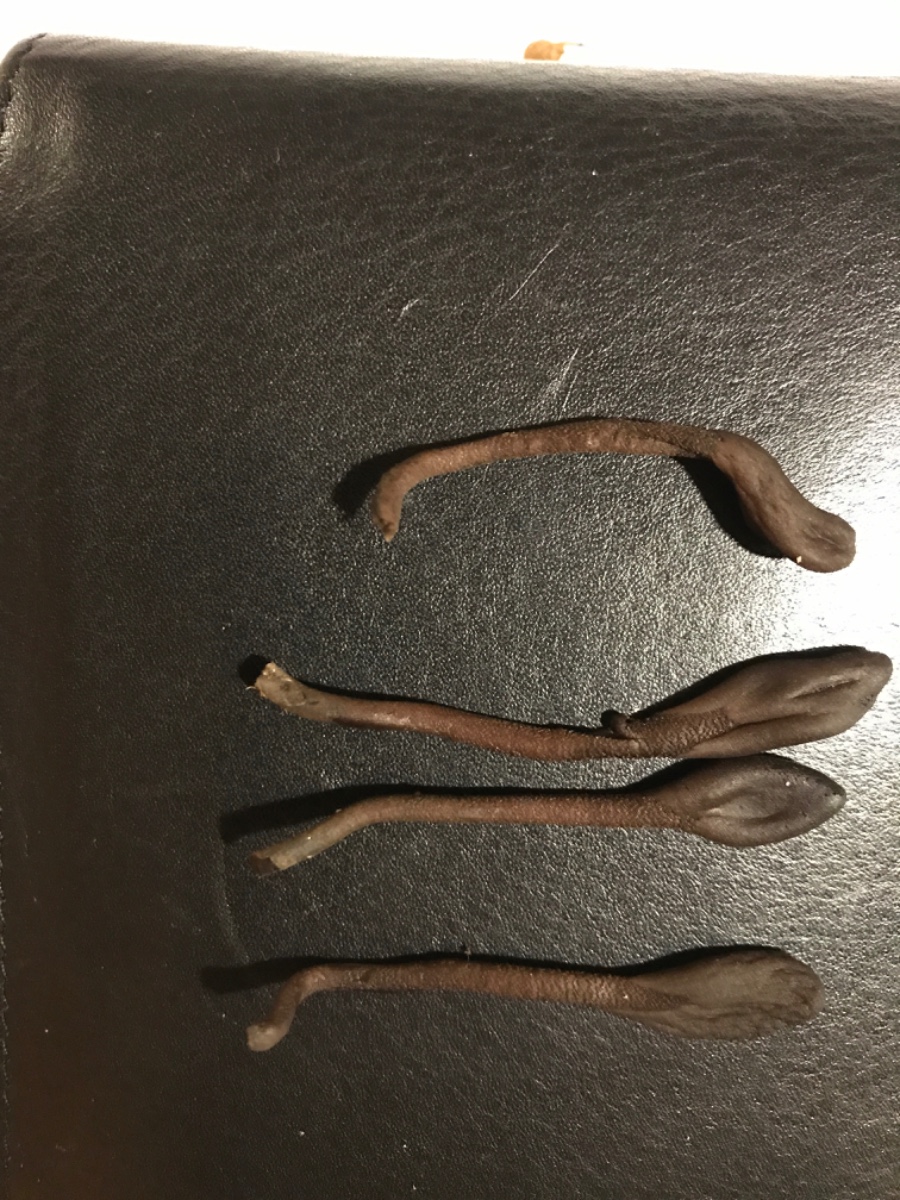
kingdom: Fungi
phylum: Ascomycota
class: Geoglossomycetes
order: Geoglossales
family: Geoglossaceae
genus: Geoglossum
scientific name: Geoglossum fallax
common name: småskællet jordtunge
